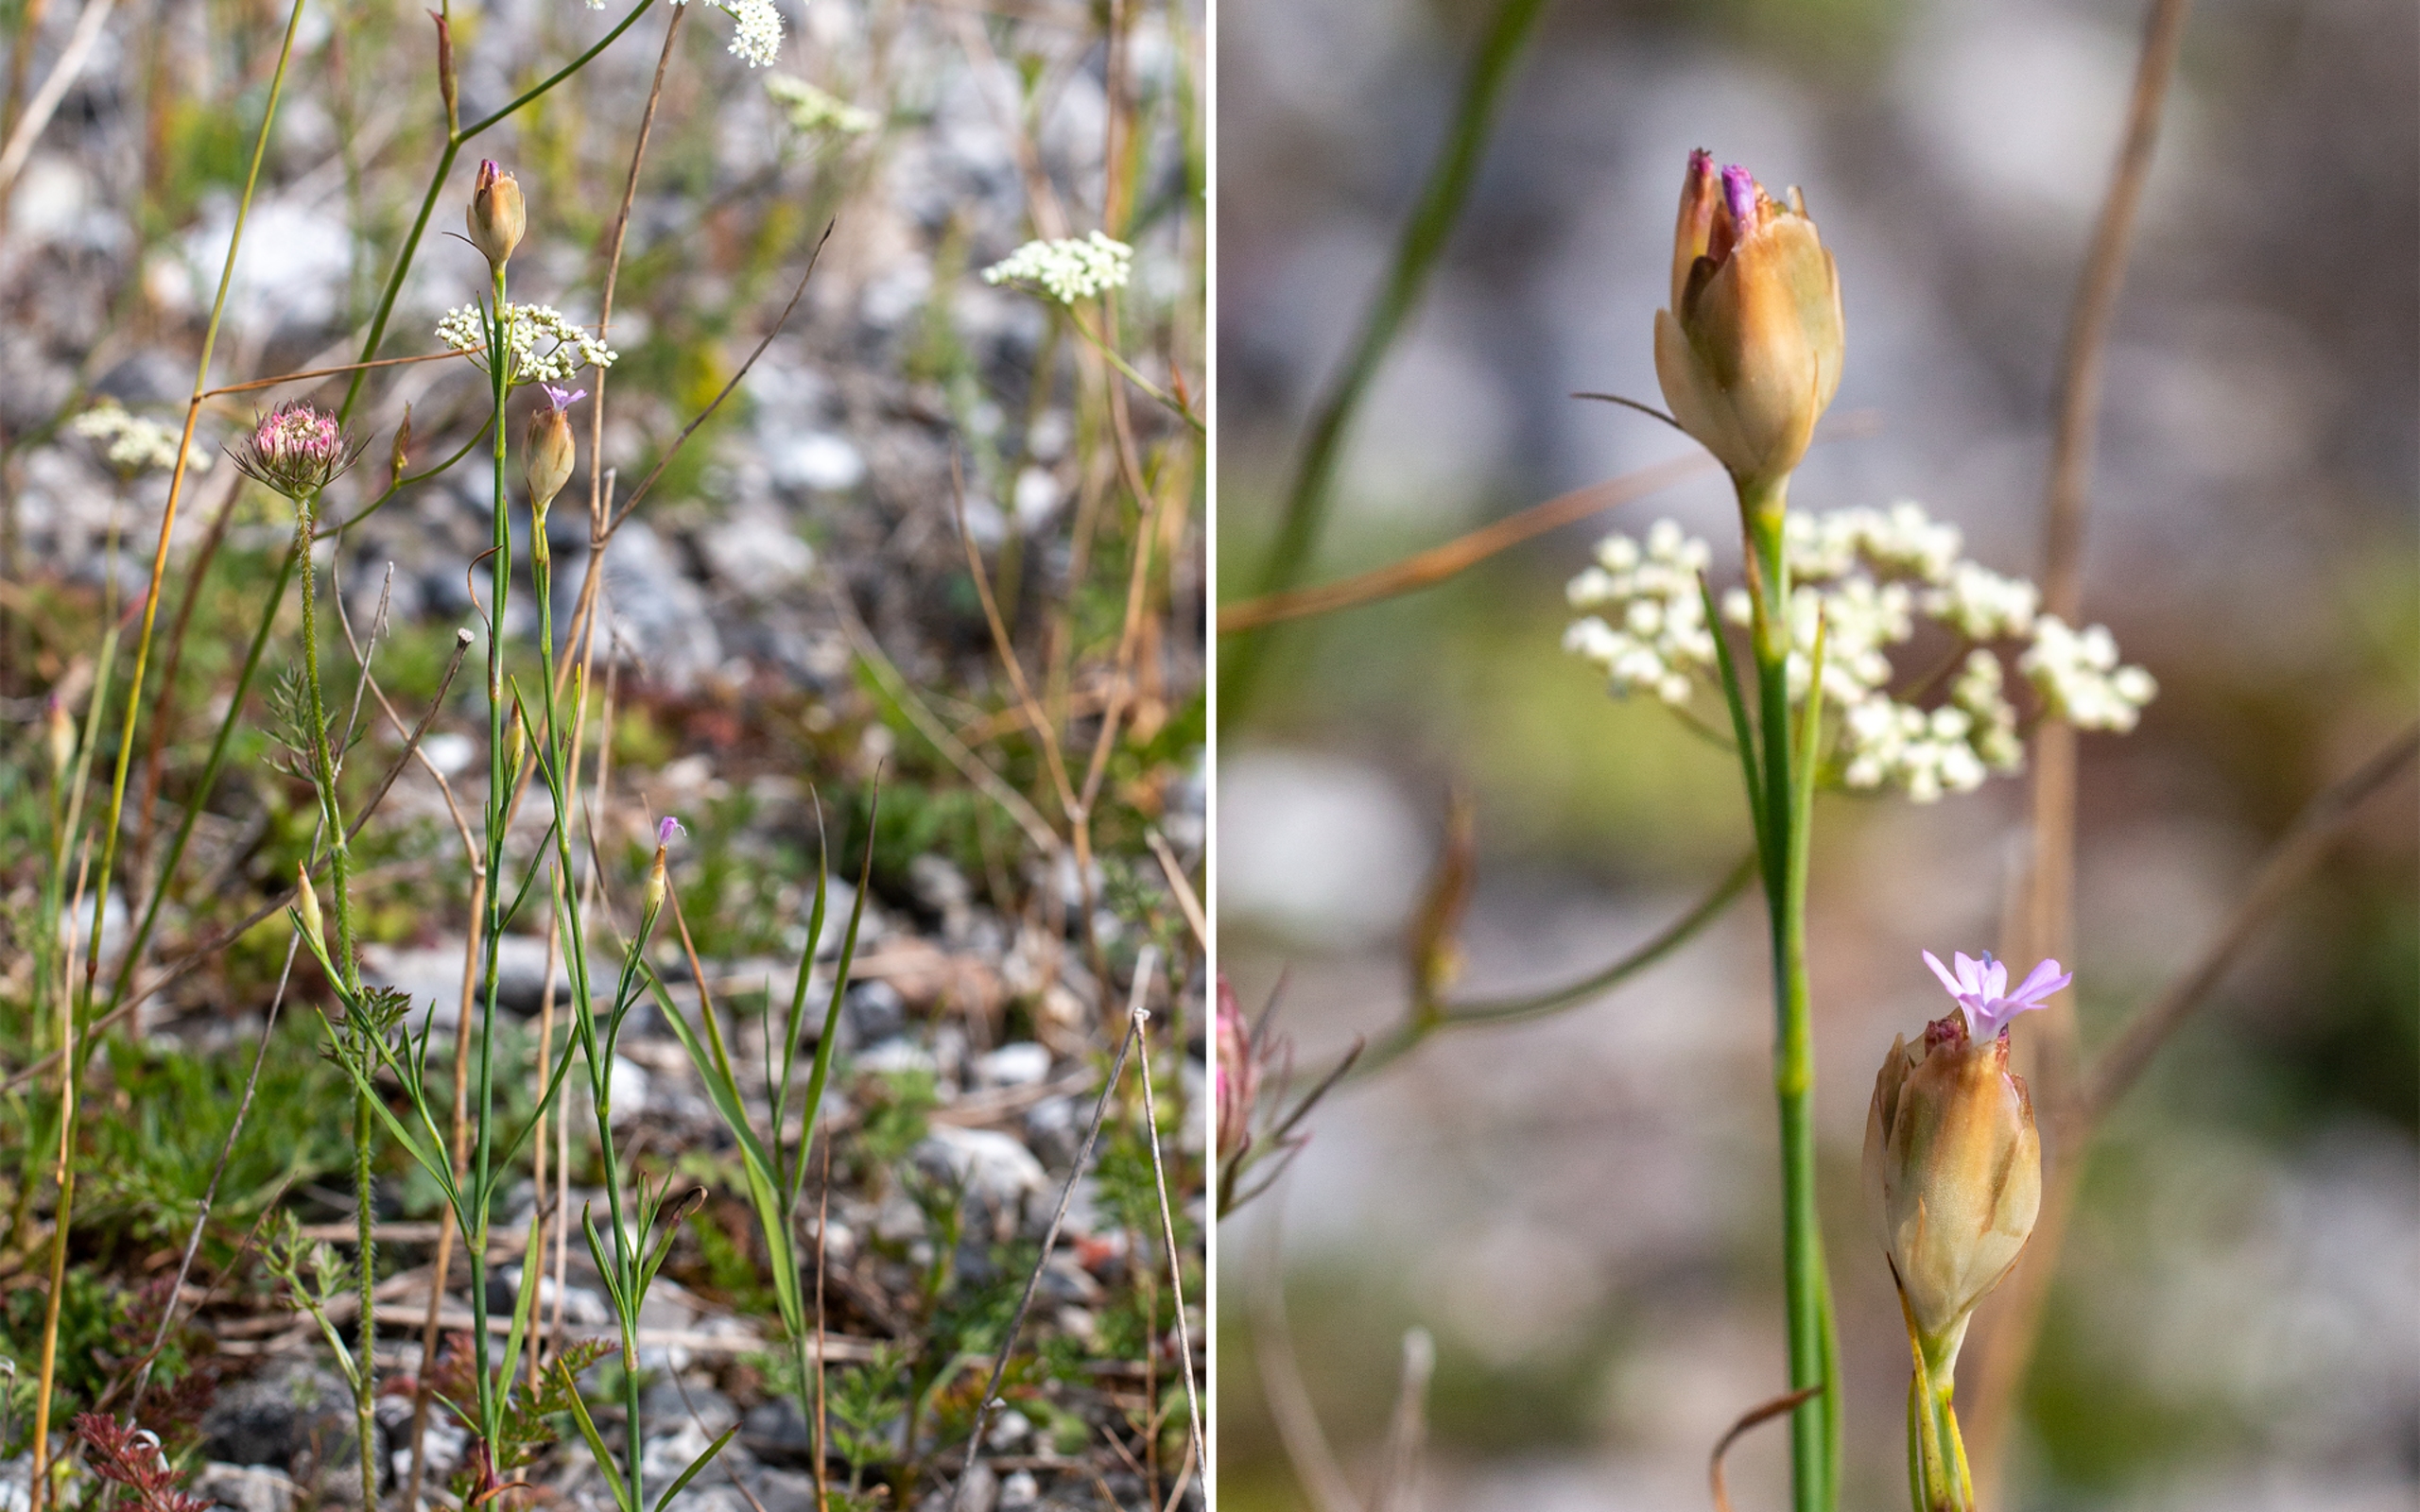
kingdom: Plantae
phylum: Tracheophyta
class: Magnoliopsida
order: Caryophyllales
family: Caryophyllaceae
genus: Petrorhagia
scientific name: Petrorhagia prolifera
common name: Knopnellike
